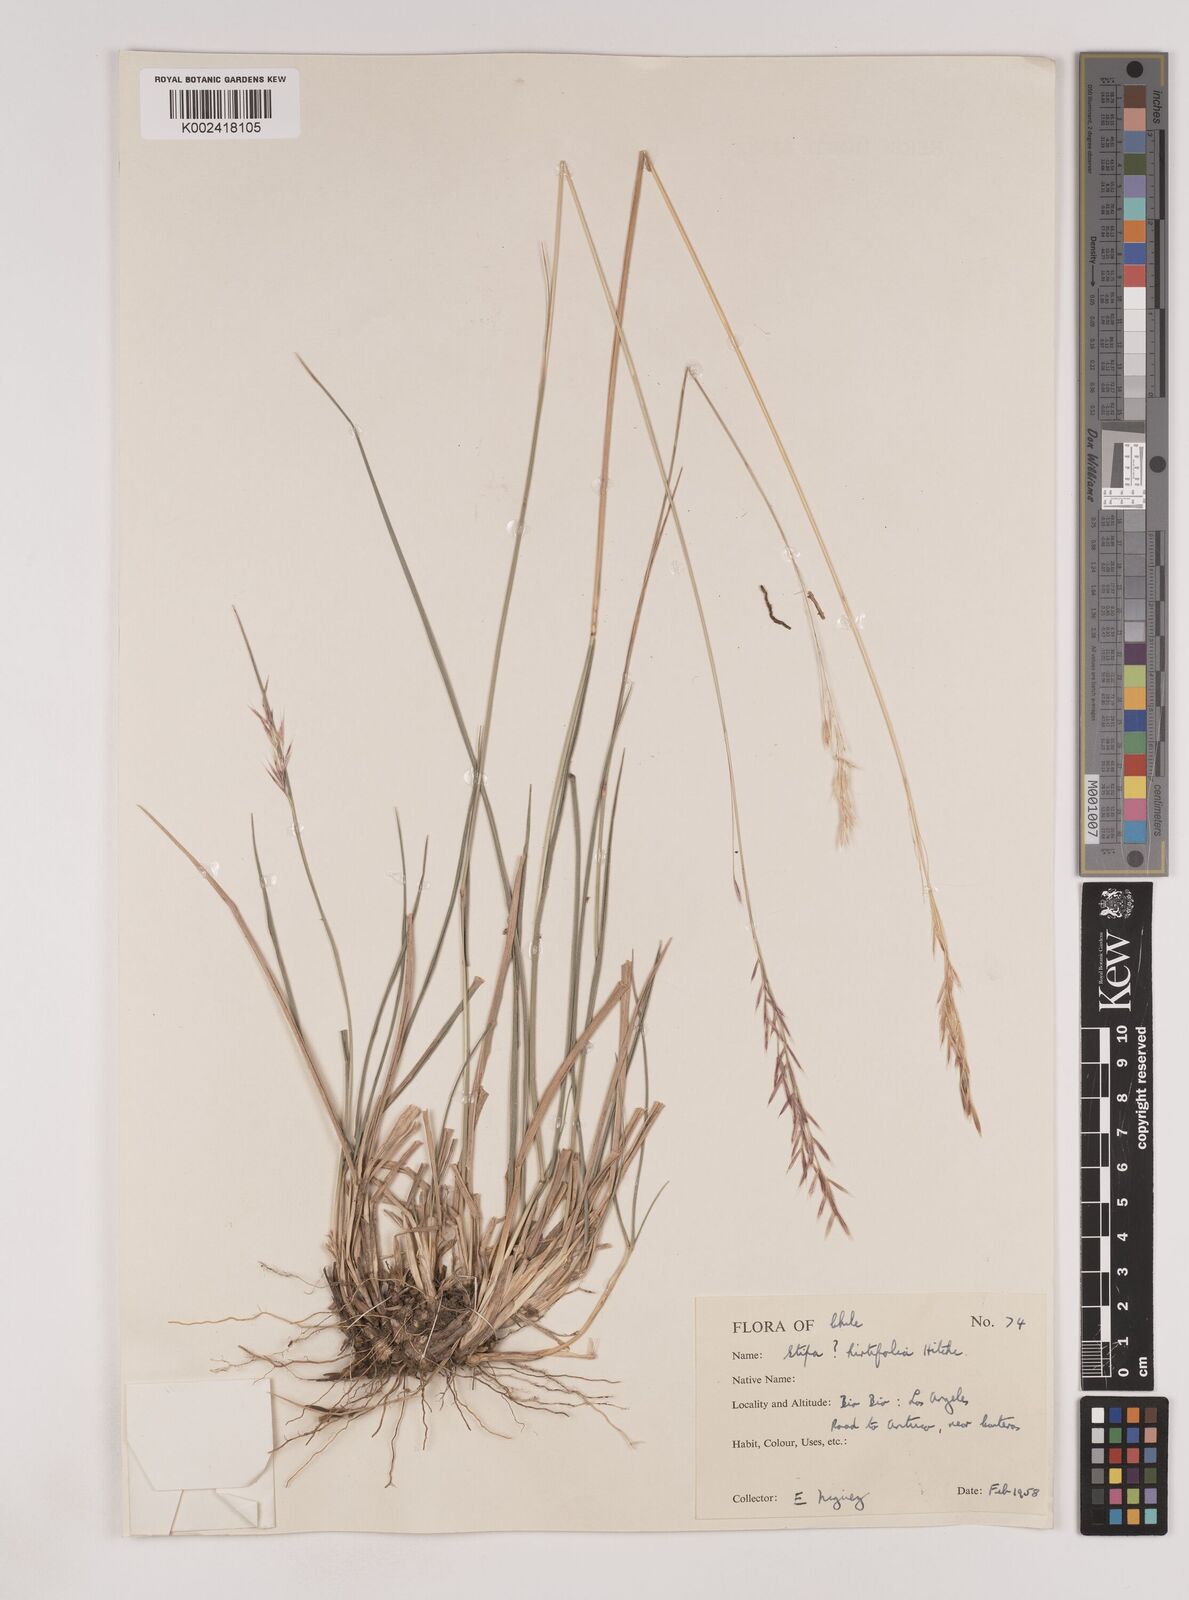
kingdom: Plantae
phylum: Tracheophyta
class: Liliopsida
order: Poales
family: Poaceae
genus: Nassella
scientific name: Nassella
